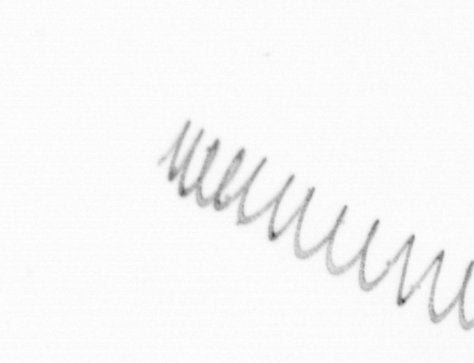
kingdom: Chromista
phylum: Ochrophyta
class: Bacillariophyceae
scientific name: Bacillariophyceae
